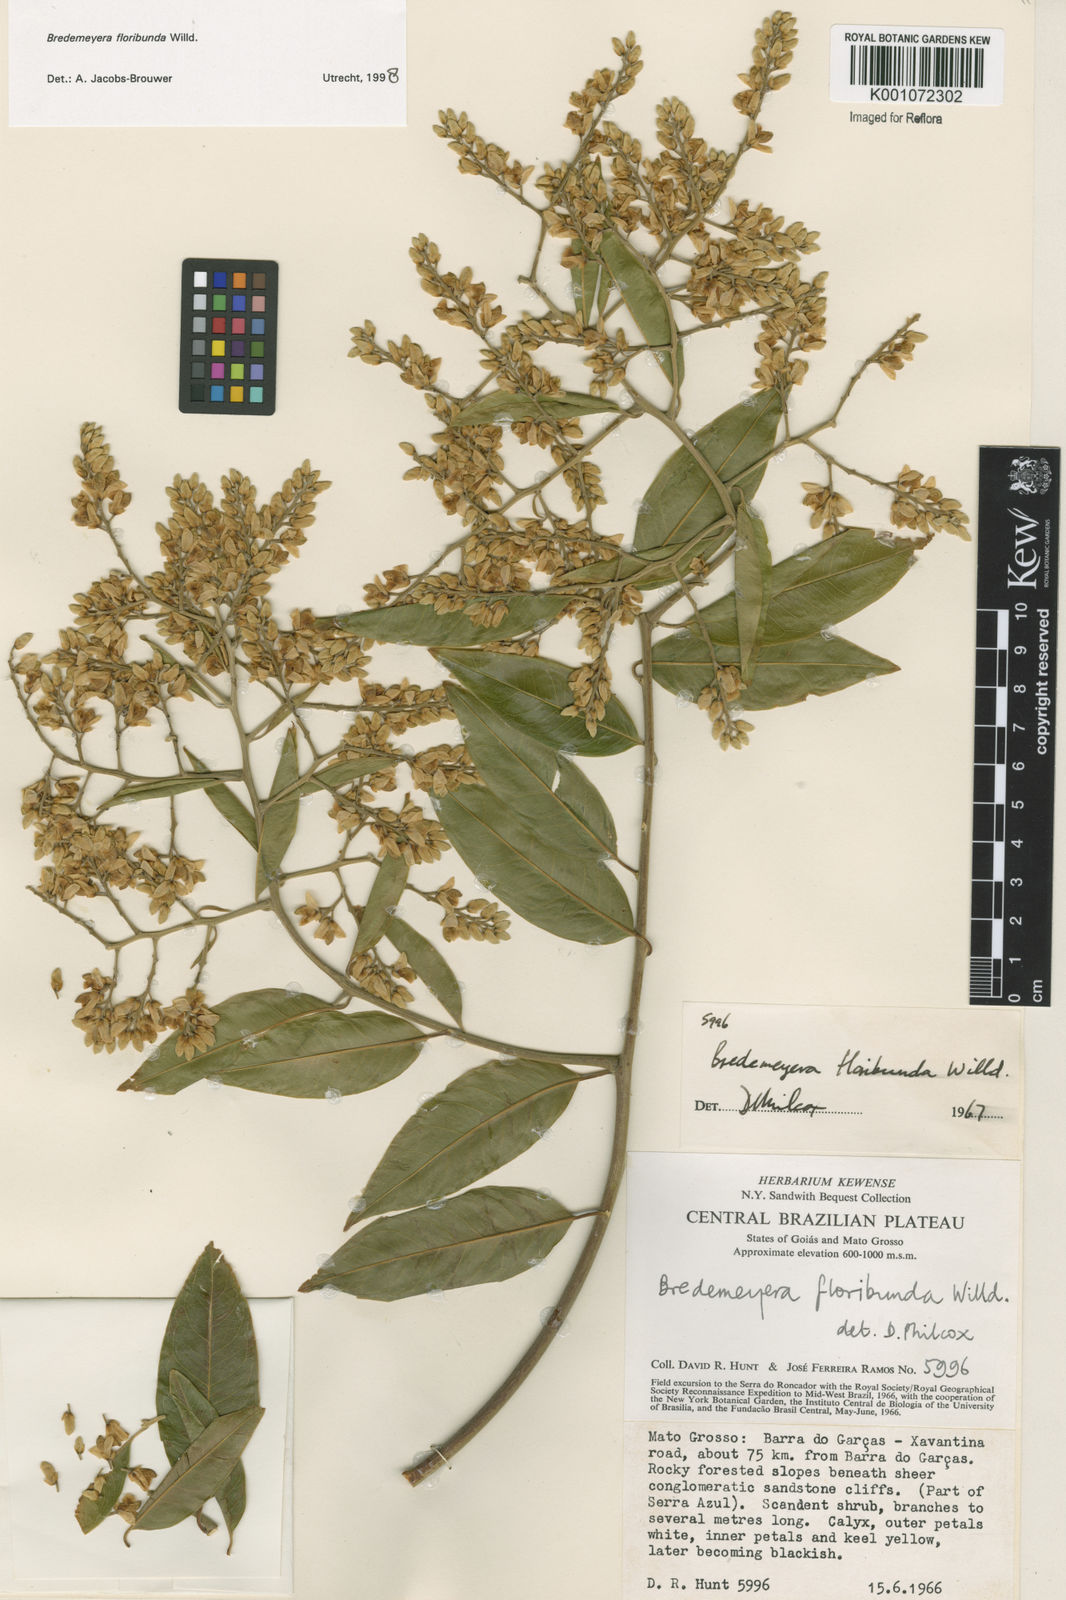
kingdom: Plantae
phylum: Tracheophyta
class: Magnoliopsida
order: Fabales
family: Polygalaceae
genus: Bredemeyera
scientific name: Bredemeyera floribunda
